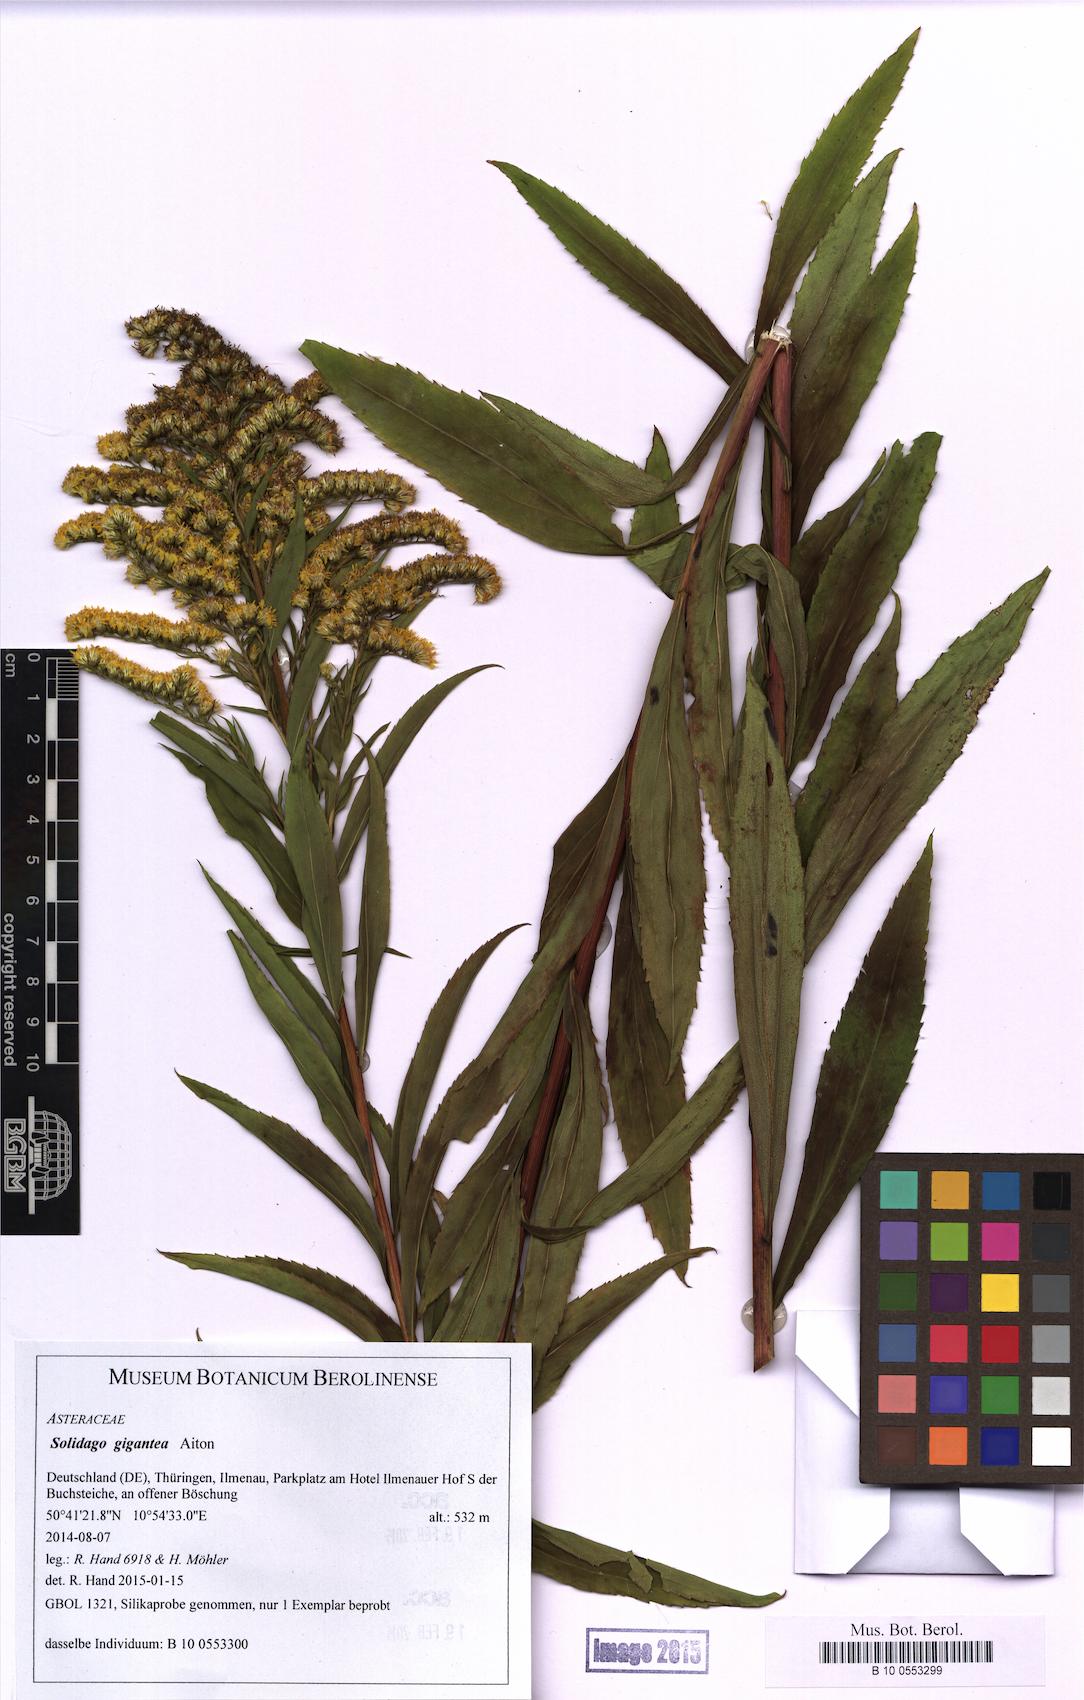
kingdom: Plantae
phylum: Tracheophyta
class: Magnoliopsida
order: Asterales
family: Asteraceae
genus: Solidago
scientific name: Solidago gigantea
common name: Giant goldenrod
